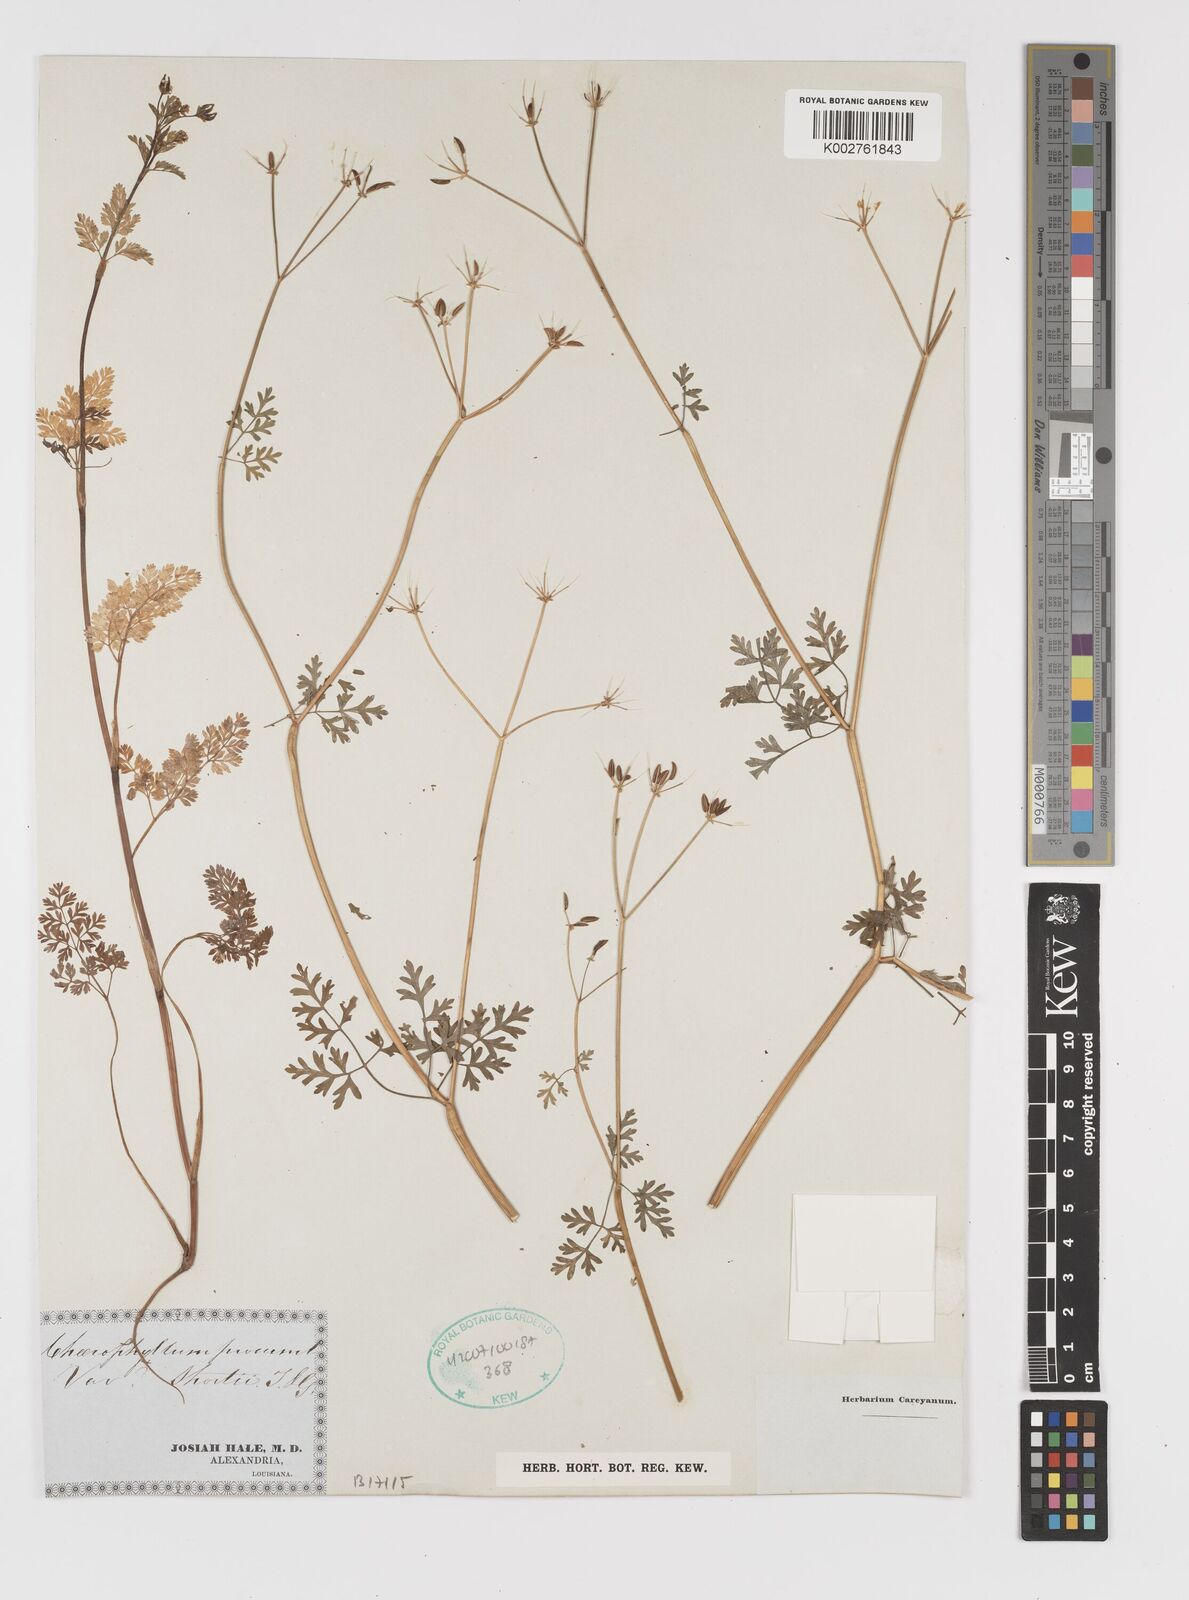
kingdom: Plantae
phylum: Tracheophyta
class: Magnoliopsida
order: Apiales
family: Apiaceae
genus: Chaerophyllum
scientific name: Chaerophyllum procumbens
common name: Spreading chervil
